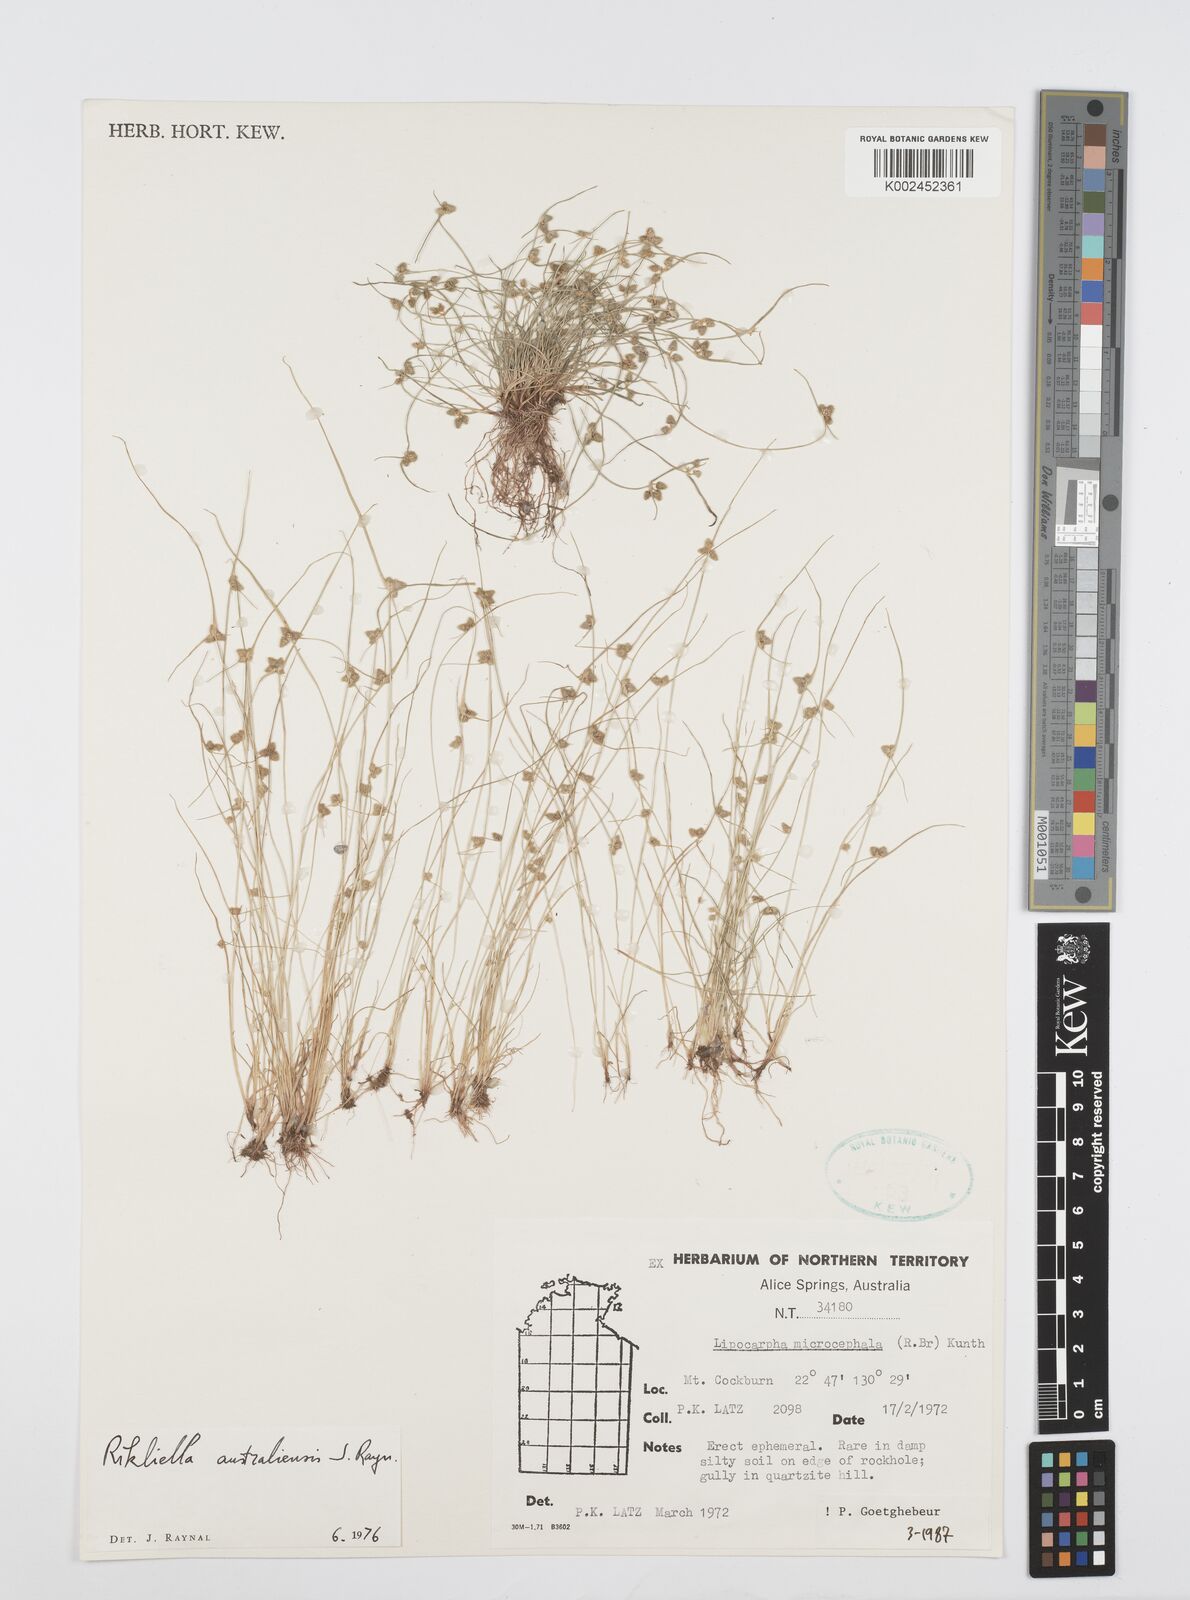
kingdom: Plantae
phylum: Tracheophyta
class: Liliopsida
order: Poales
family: Cyperaceae
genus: Cyperus
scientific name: Cyperus microcephalus
